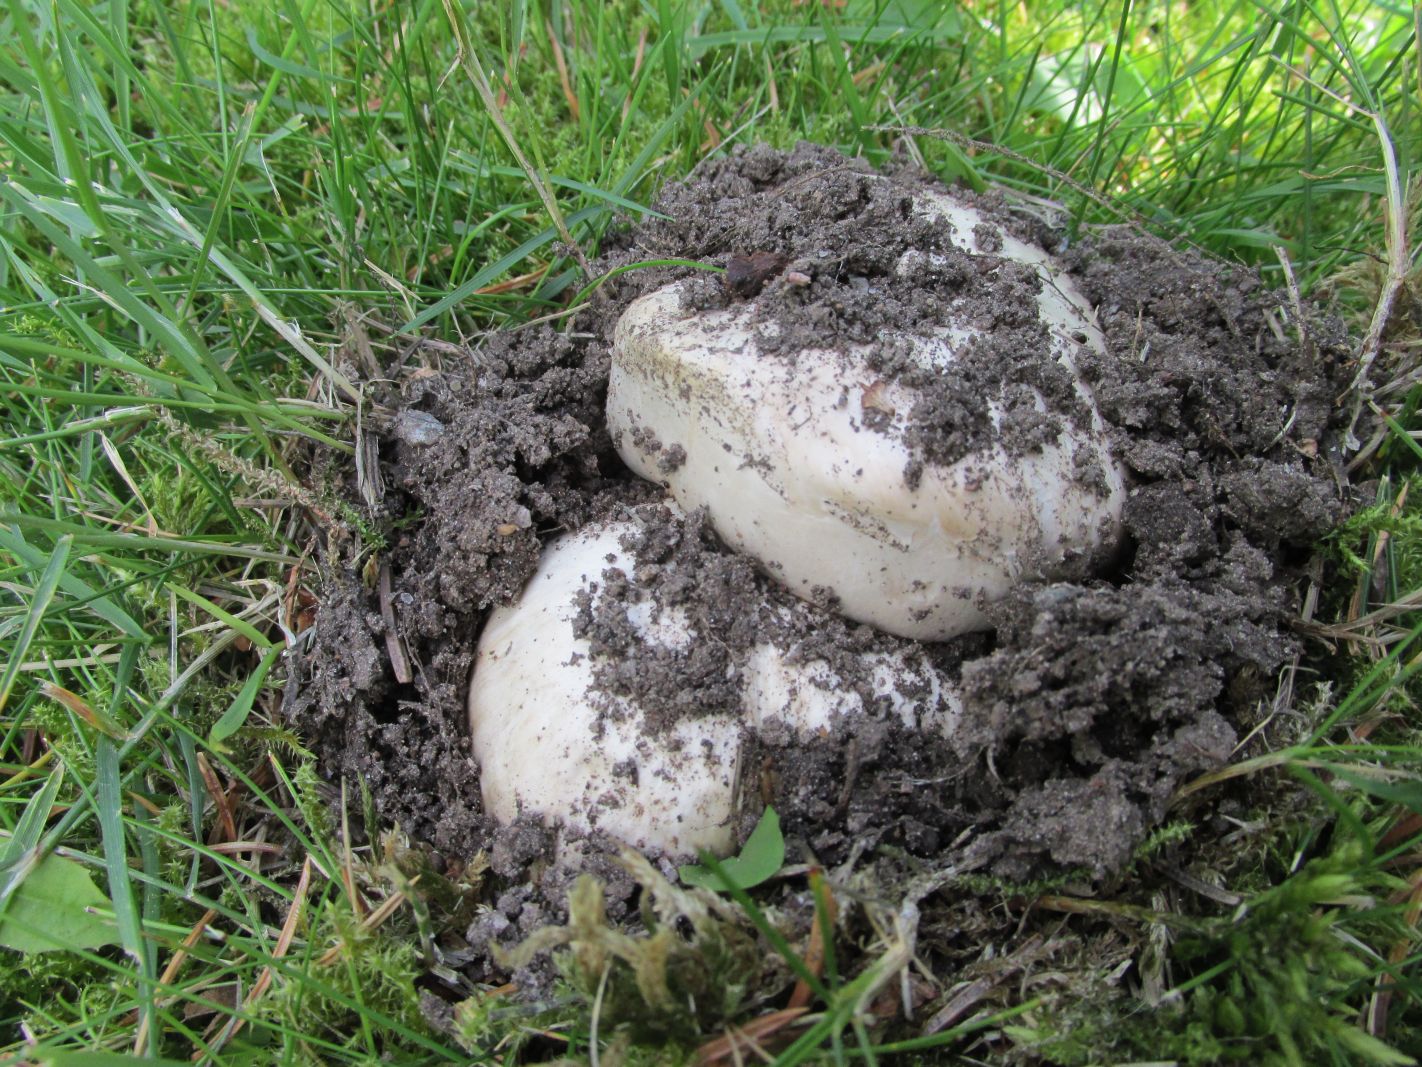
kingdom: Fungi
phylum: Basidiomycota
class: Agaricomycetes
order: Agaricales
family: Agaricaceae
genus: Agaricus
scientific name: Agaricus bernardii
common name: Salty mushroom
